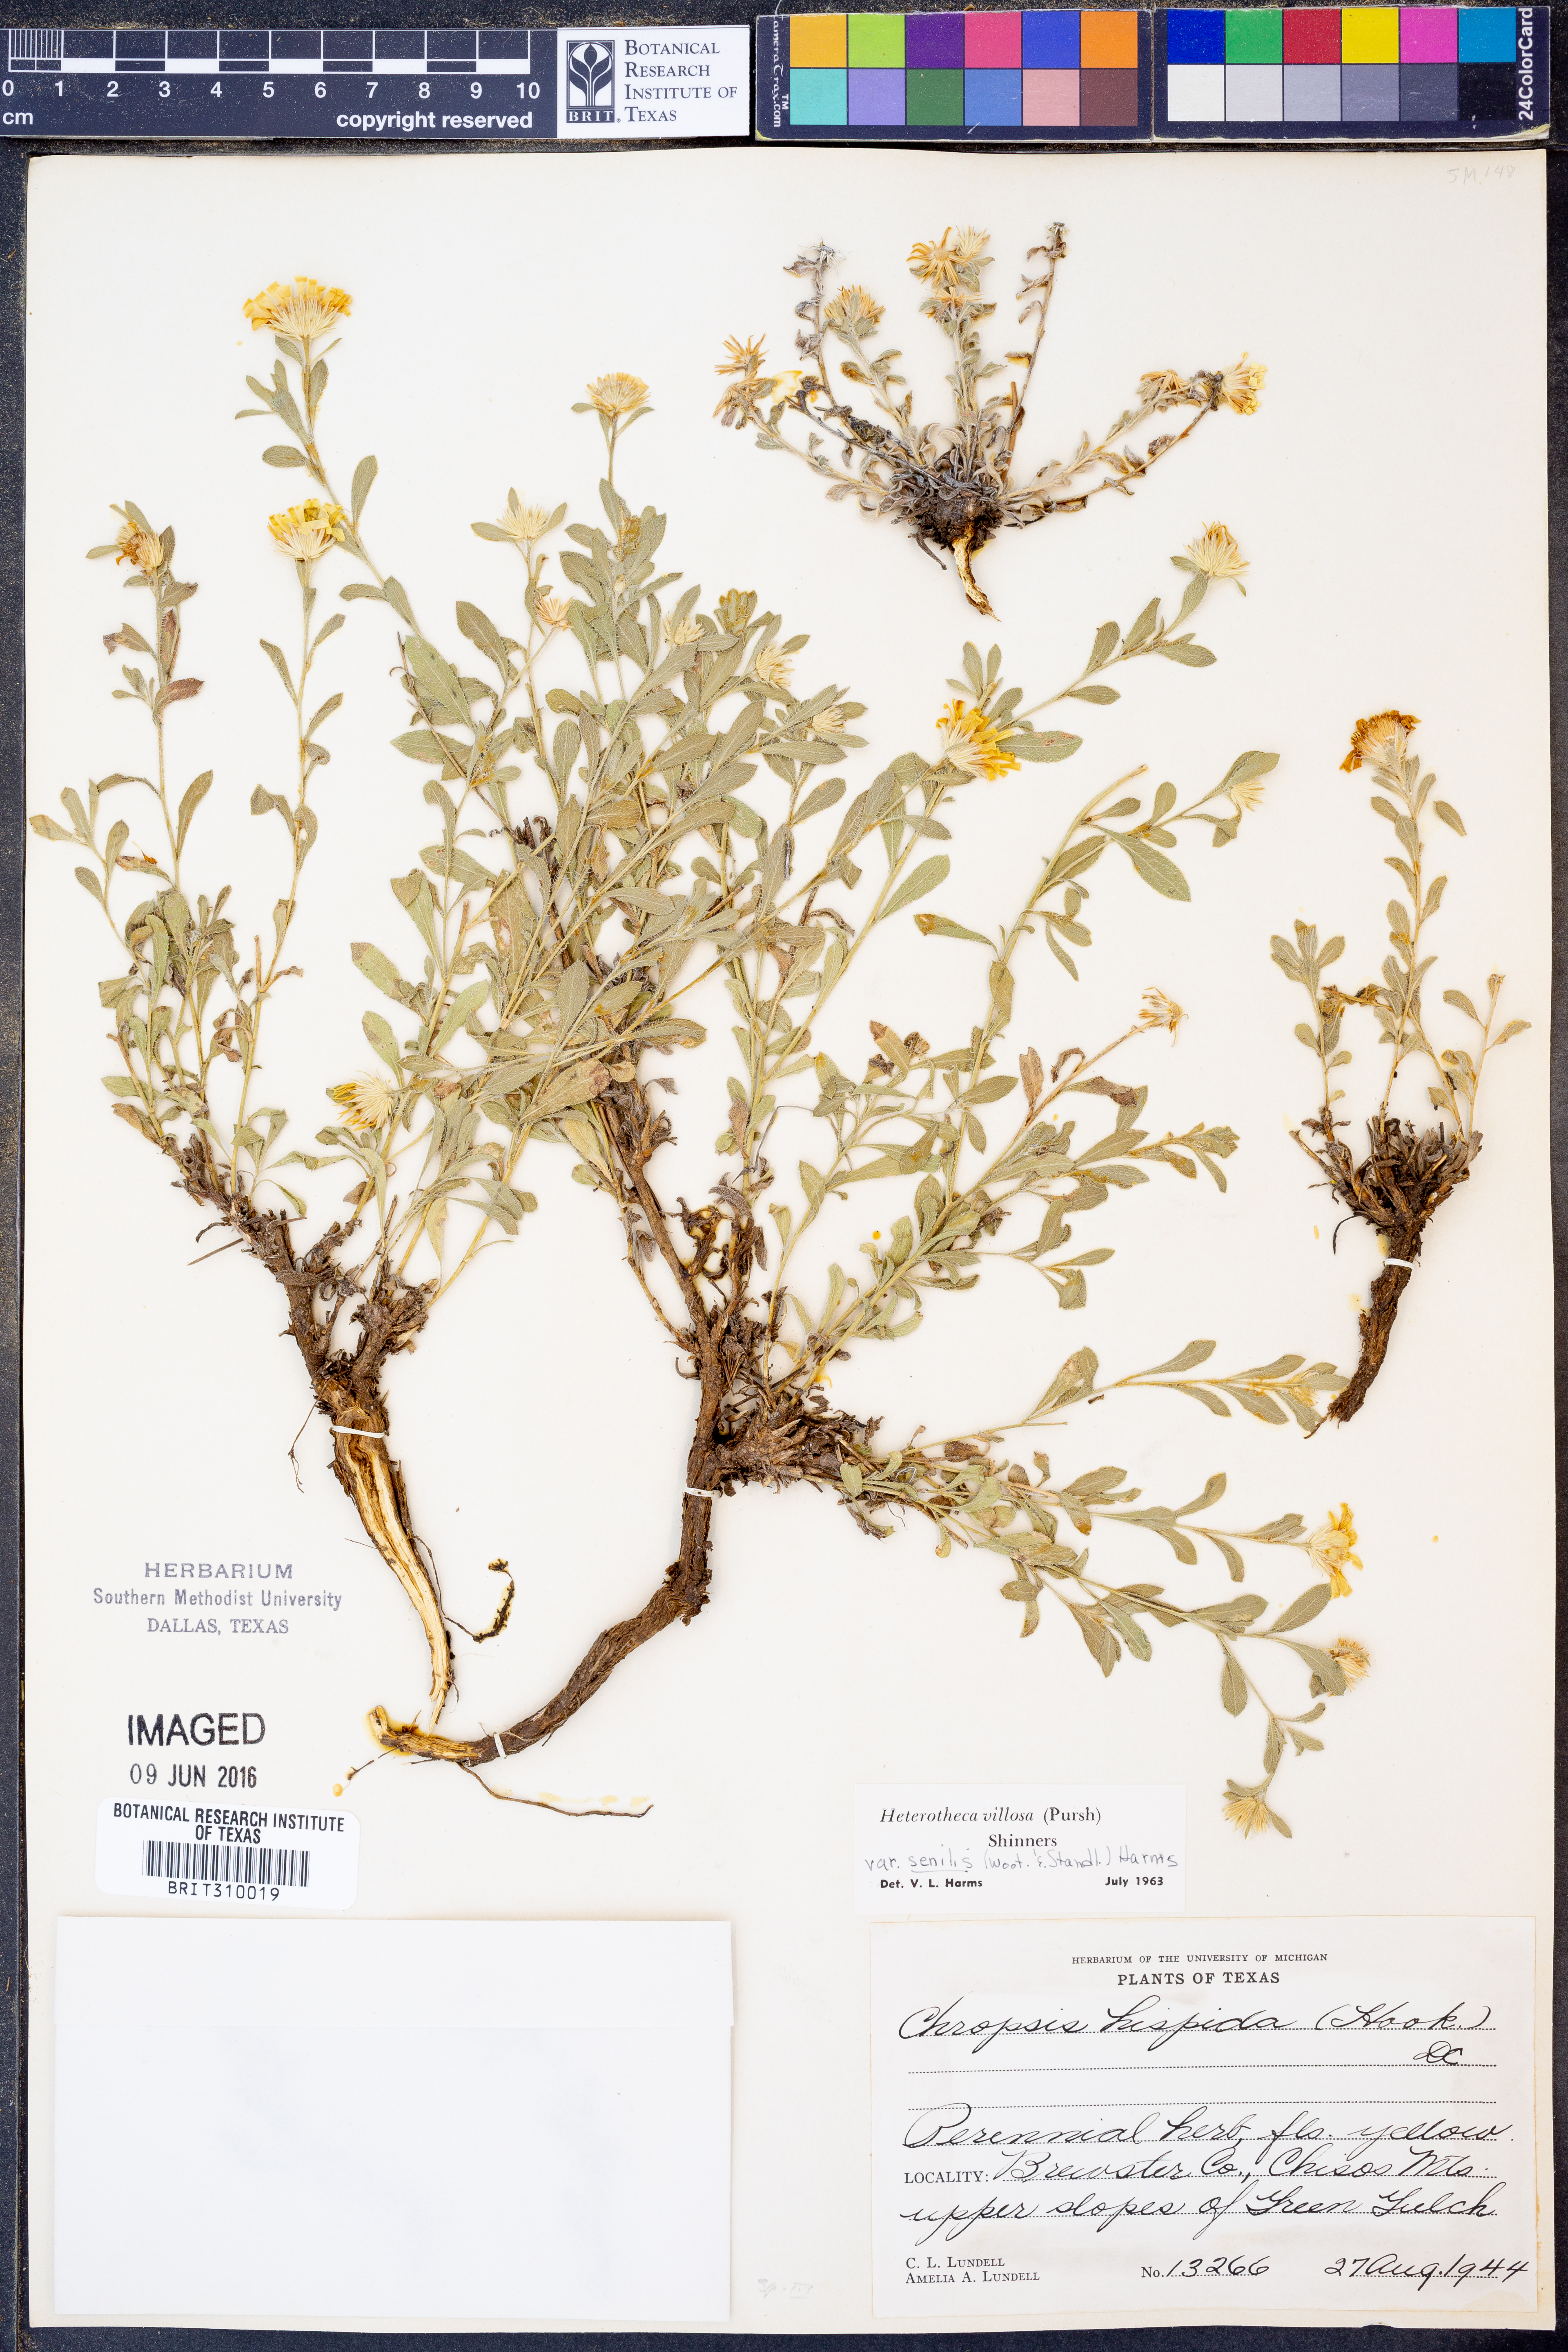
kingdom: Plantae
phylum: Tracheophyta
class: Magnoliopsida
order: Asterales
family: Asteraceae
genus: Heterotheca
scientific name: Heterotheca villosa
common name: Hairy false goldenaster
